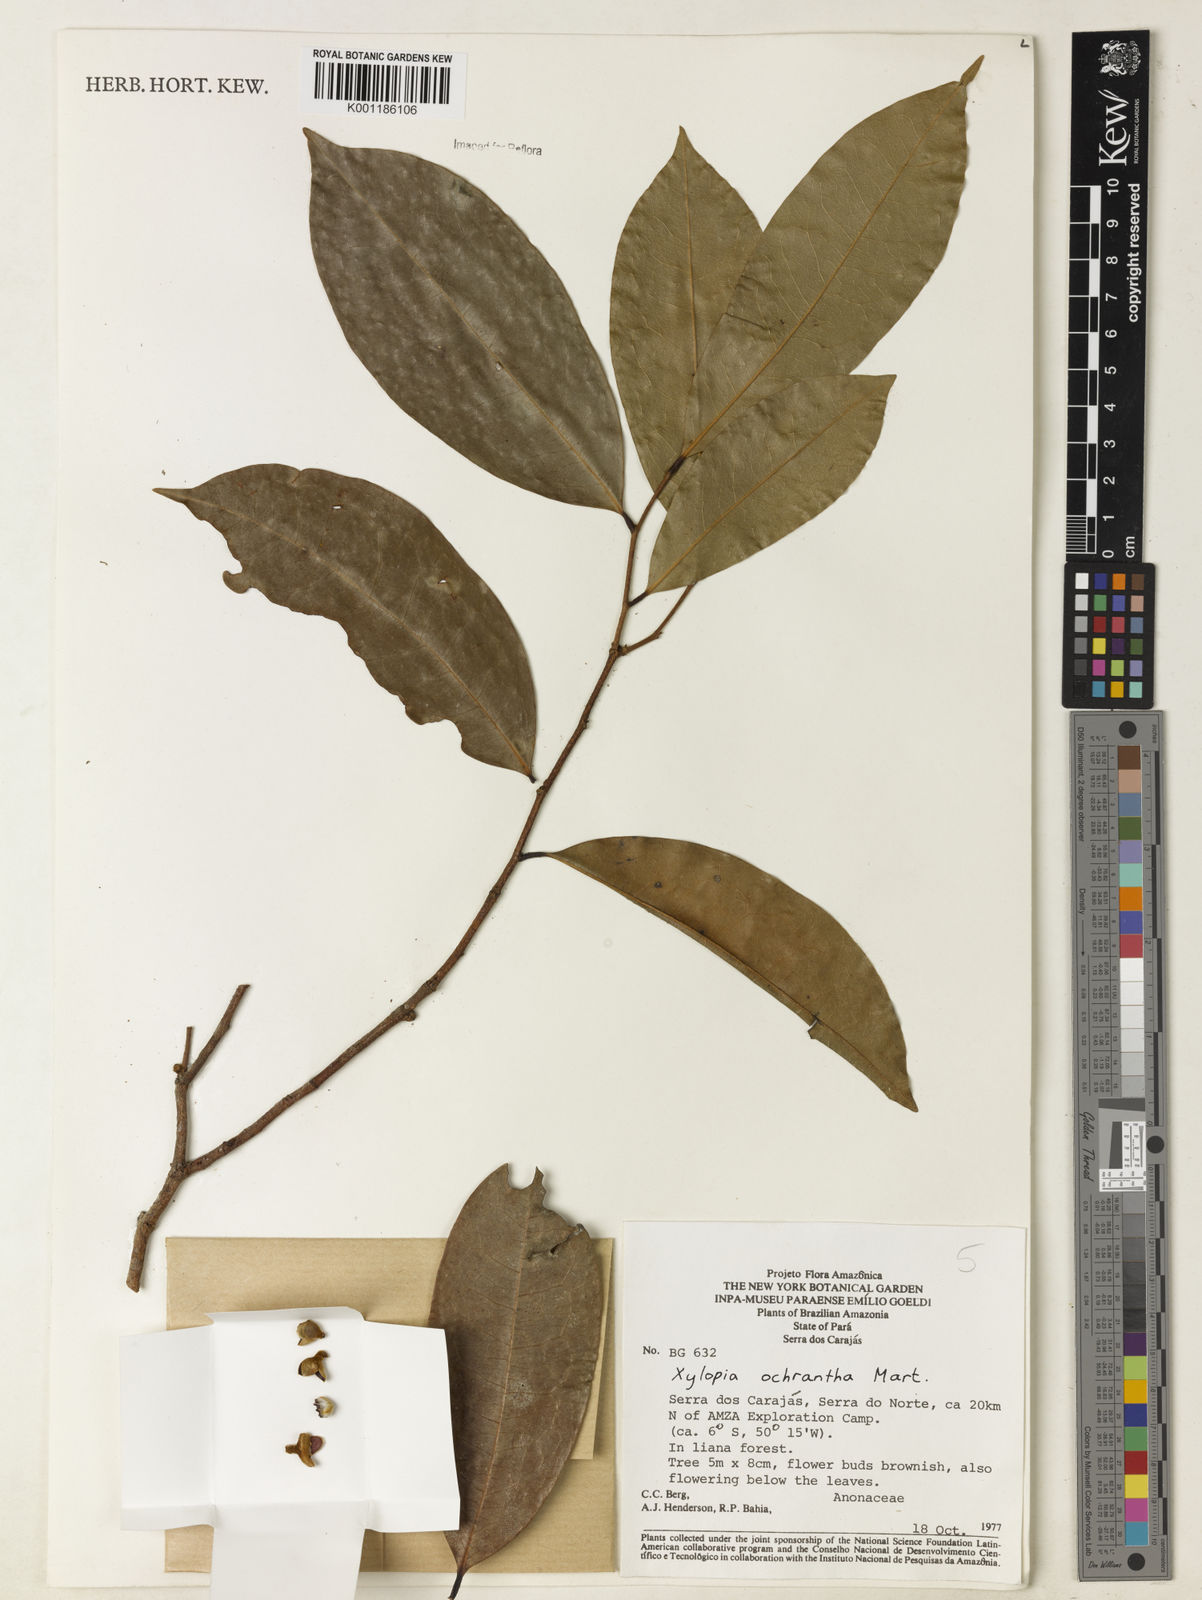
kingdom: Plantae
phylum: Tracheophyta
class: Magnoliopsida
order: Magnoliales
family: Annonaceae
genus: Xylopia
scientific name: Xylopia ochrantha
